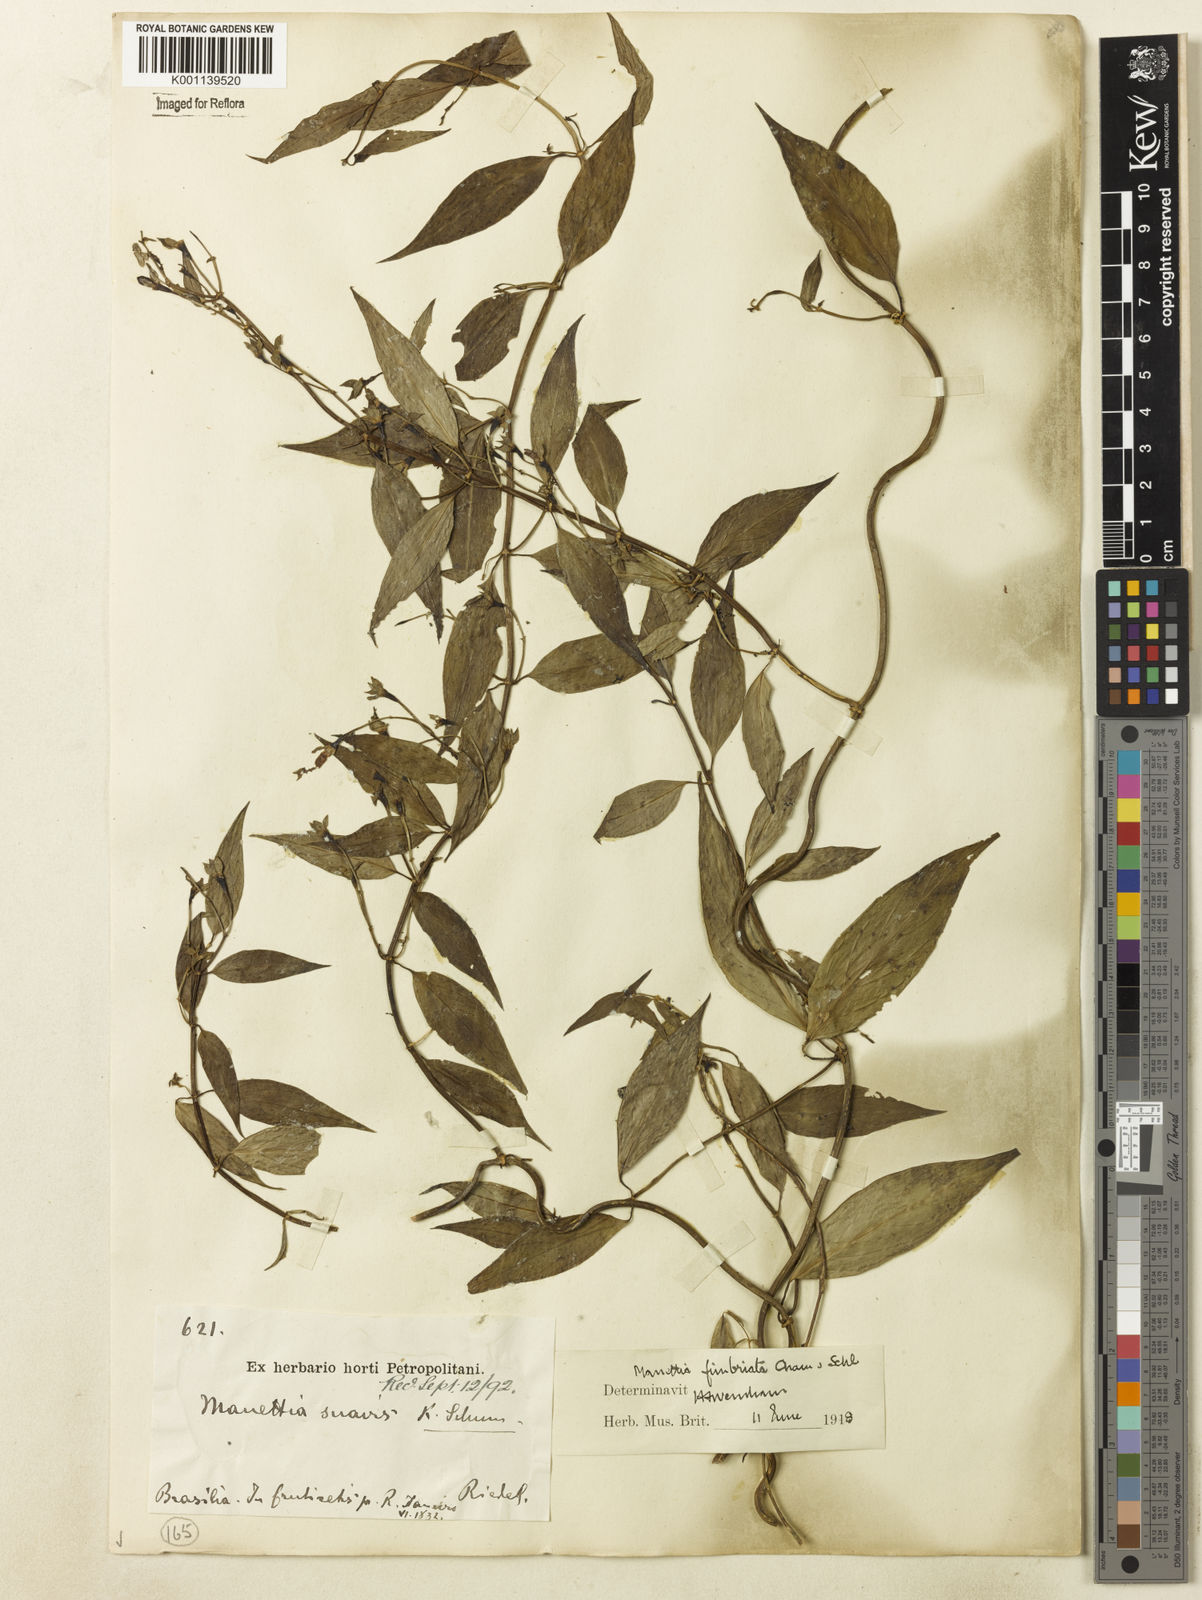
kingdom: Plantae
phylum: Tracheophyta
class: Magnoliopsida
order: Gentianales
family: Rubiaceae
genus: Manettia
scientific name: Manettia fimbriata
